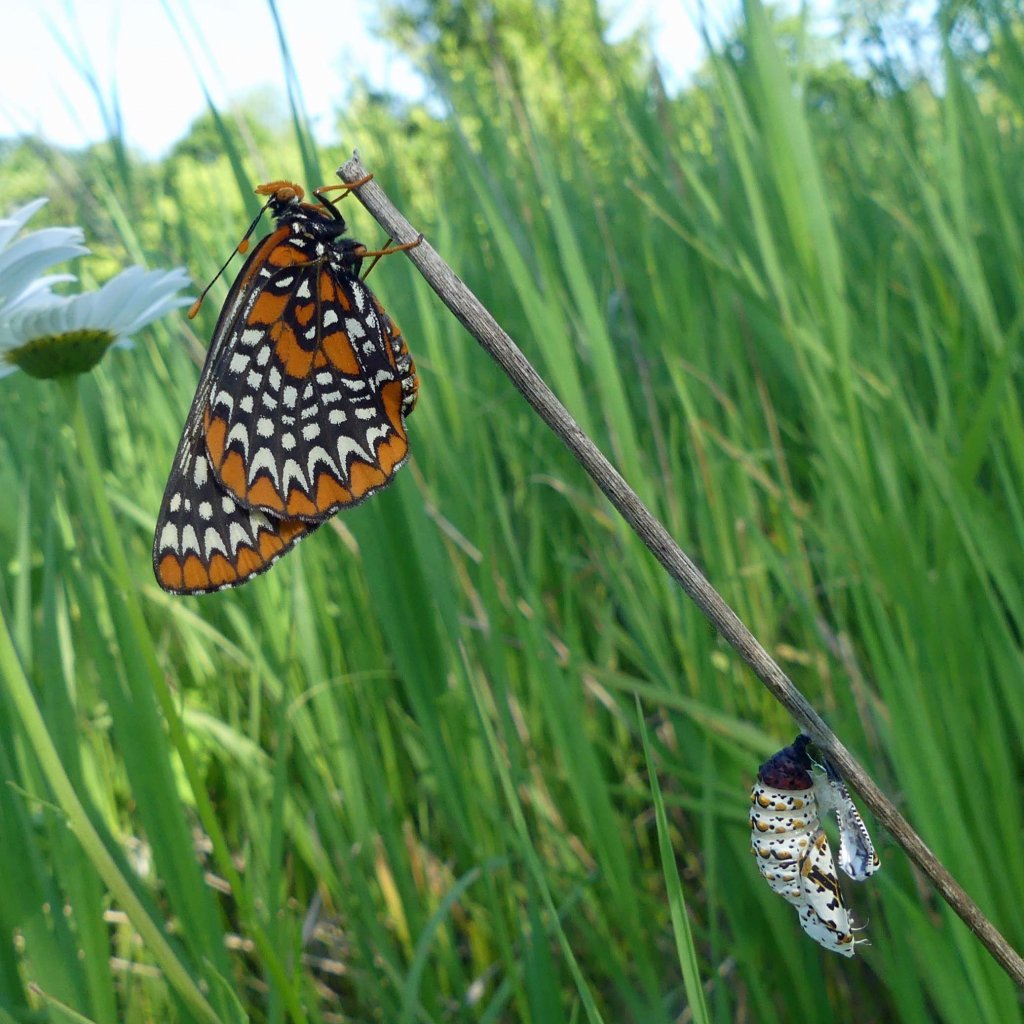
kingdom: Animalia
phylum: Arthropoda
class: Insecta
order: Lepidoptera
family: Nymphalidae
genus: Euphydryas
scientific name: Euphydryas phaeton
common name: Baltimore Checkerspot
